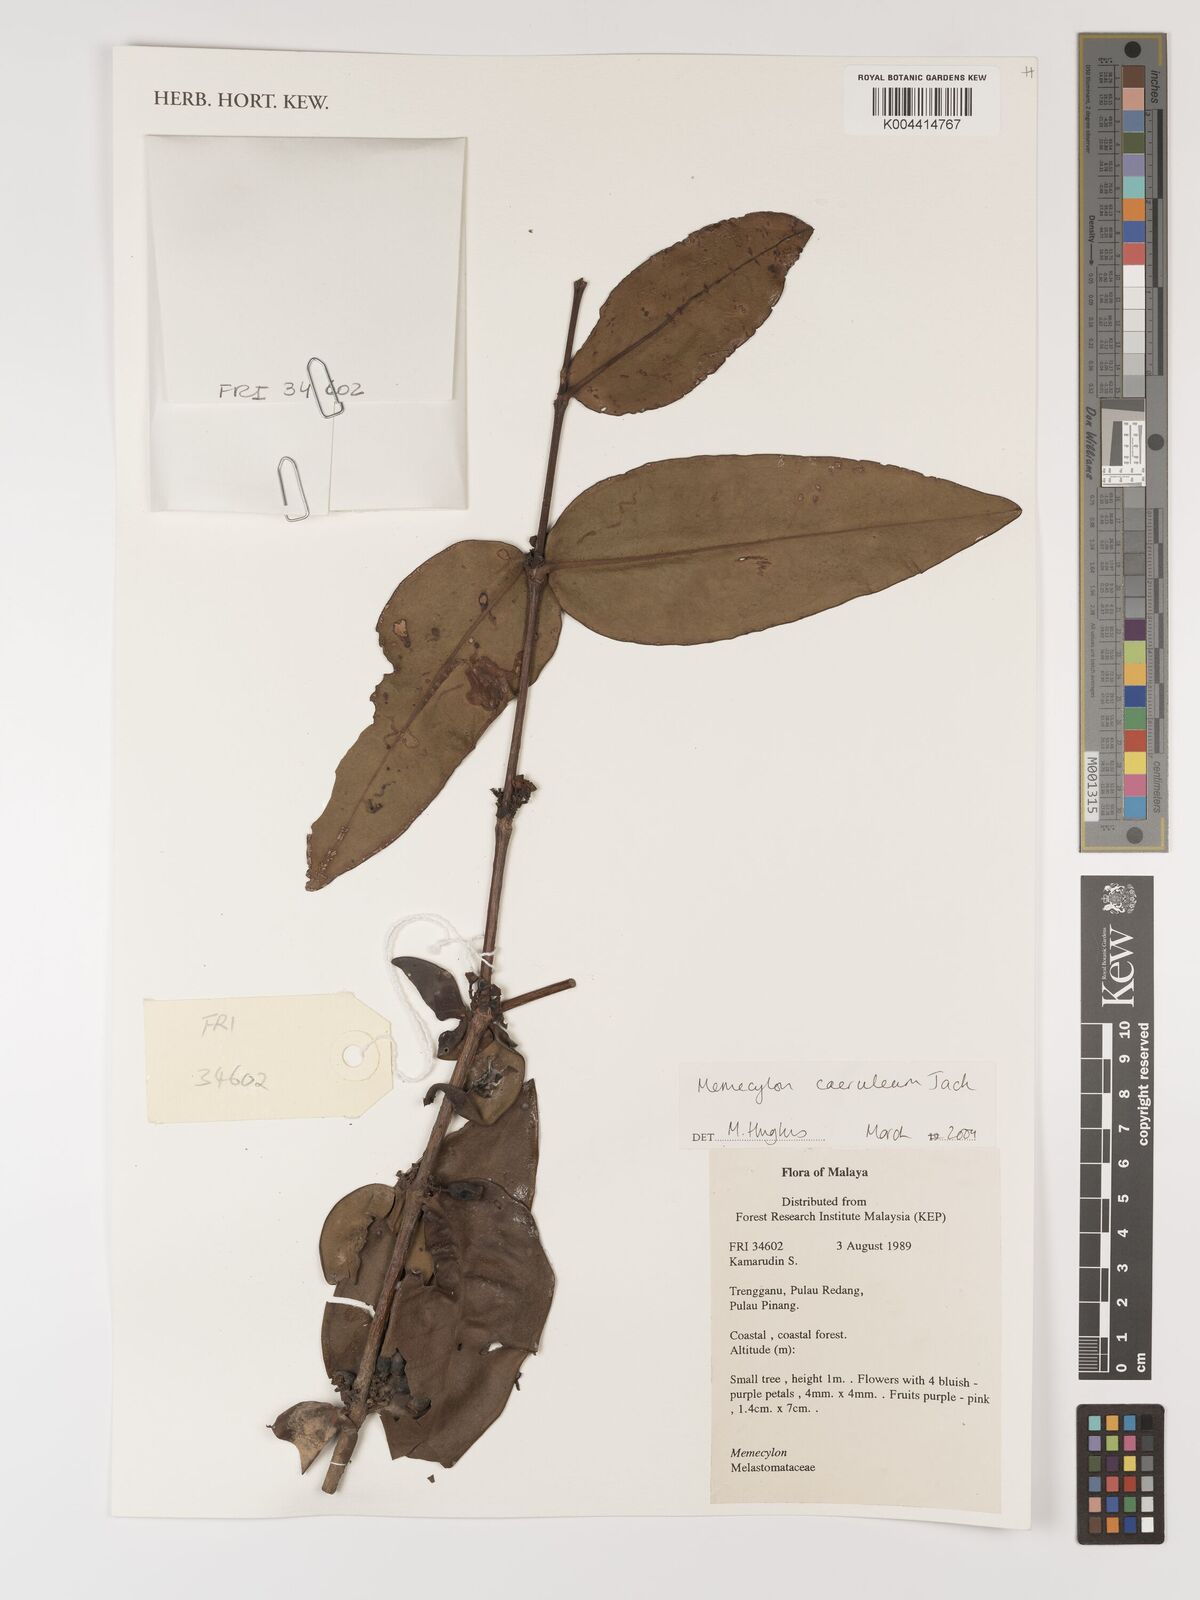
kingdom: Plantae
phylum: Tracheophyta
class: Magnoliopsida
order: Myrtales
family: Melastomataceae
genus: Memecylon
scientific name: Memecylon
